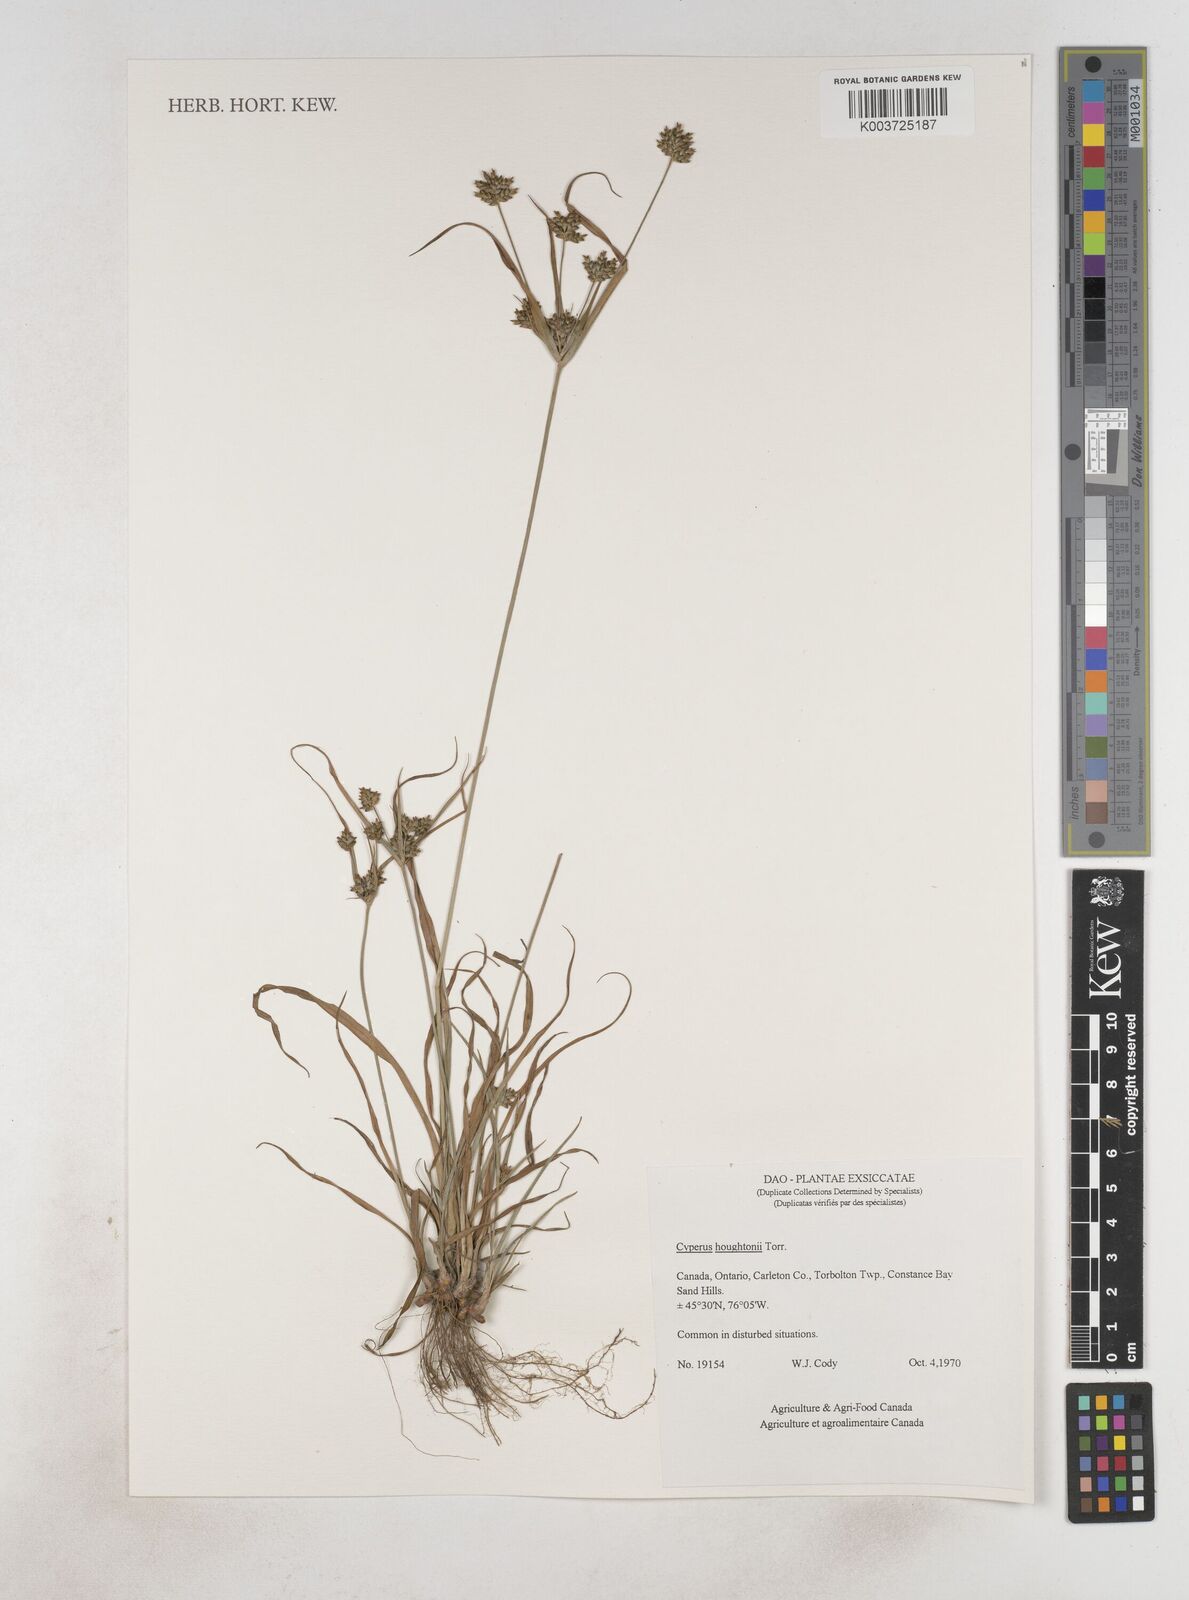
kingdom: Plantae
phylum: Tracheophyta
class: Liliopsida
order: Poales
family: Cyperaceae
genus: Cyperus
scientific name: Cyperus retrorsus
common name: Pinebarren flat sedge
